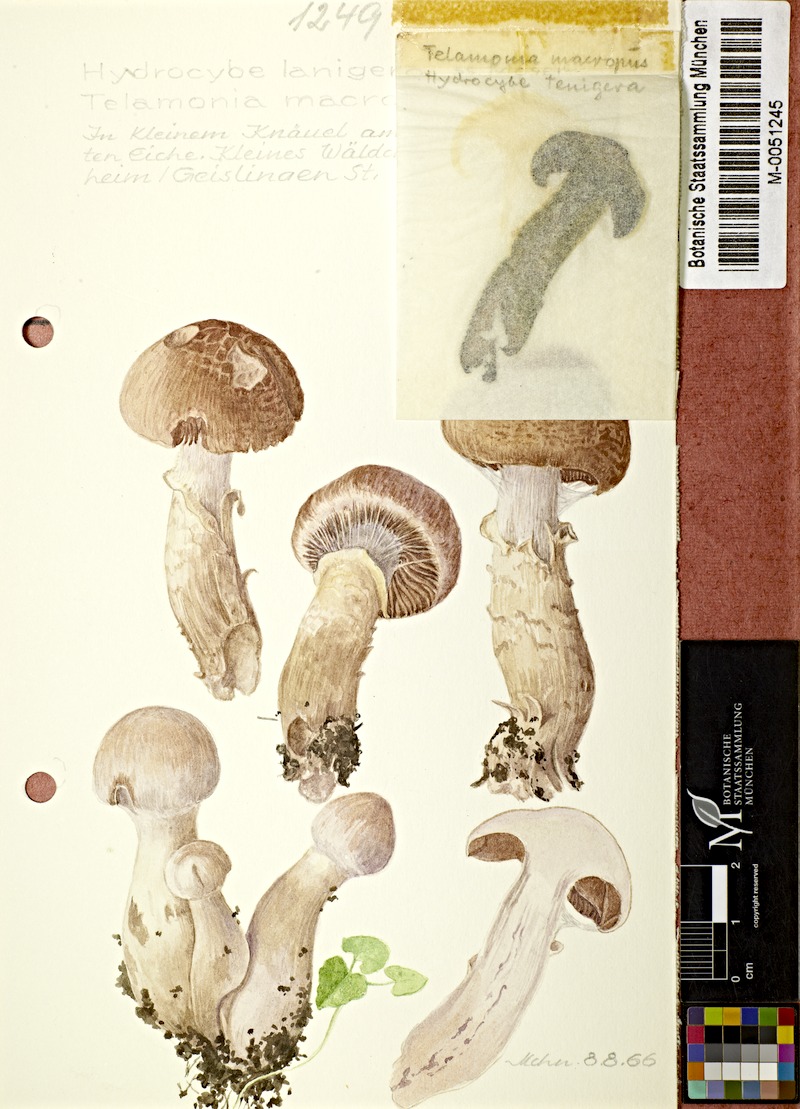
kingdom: Fungi
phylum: Basidiomycota
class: Agaricomycetes
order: Agaricales
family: Cortinariaceae
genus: Cortinarius
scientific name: Cortinarius laniger
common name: Woolly webcap
